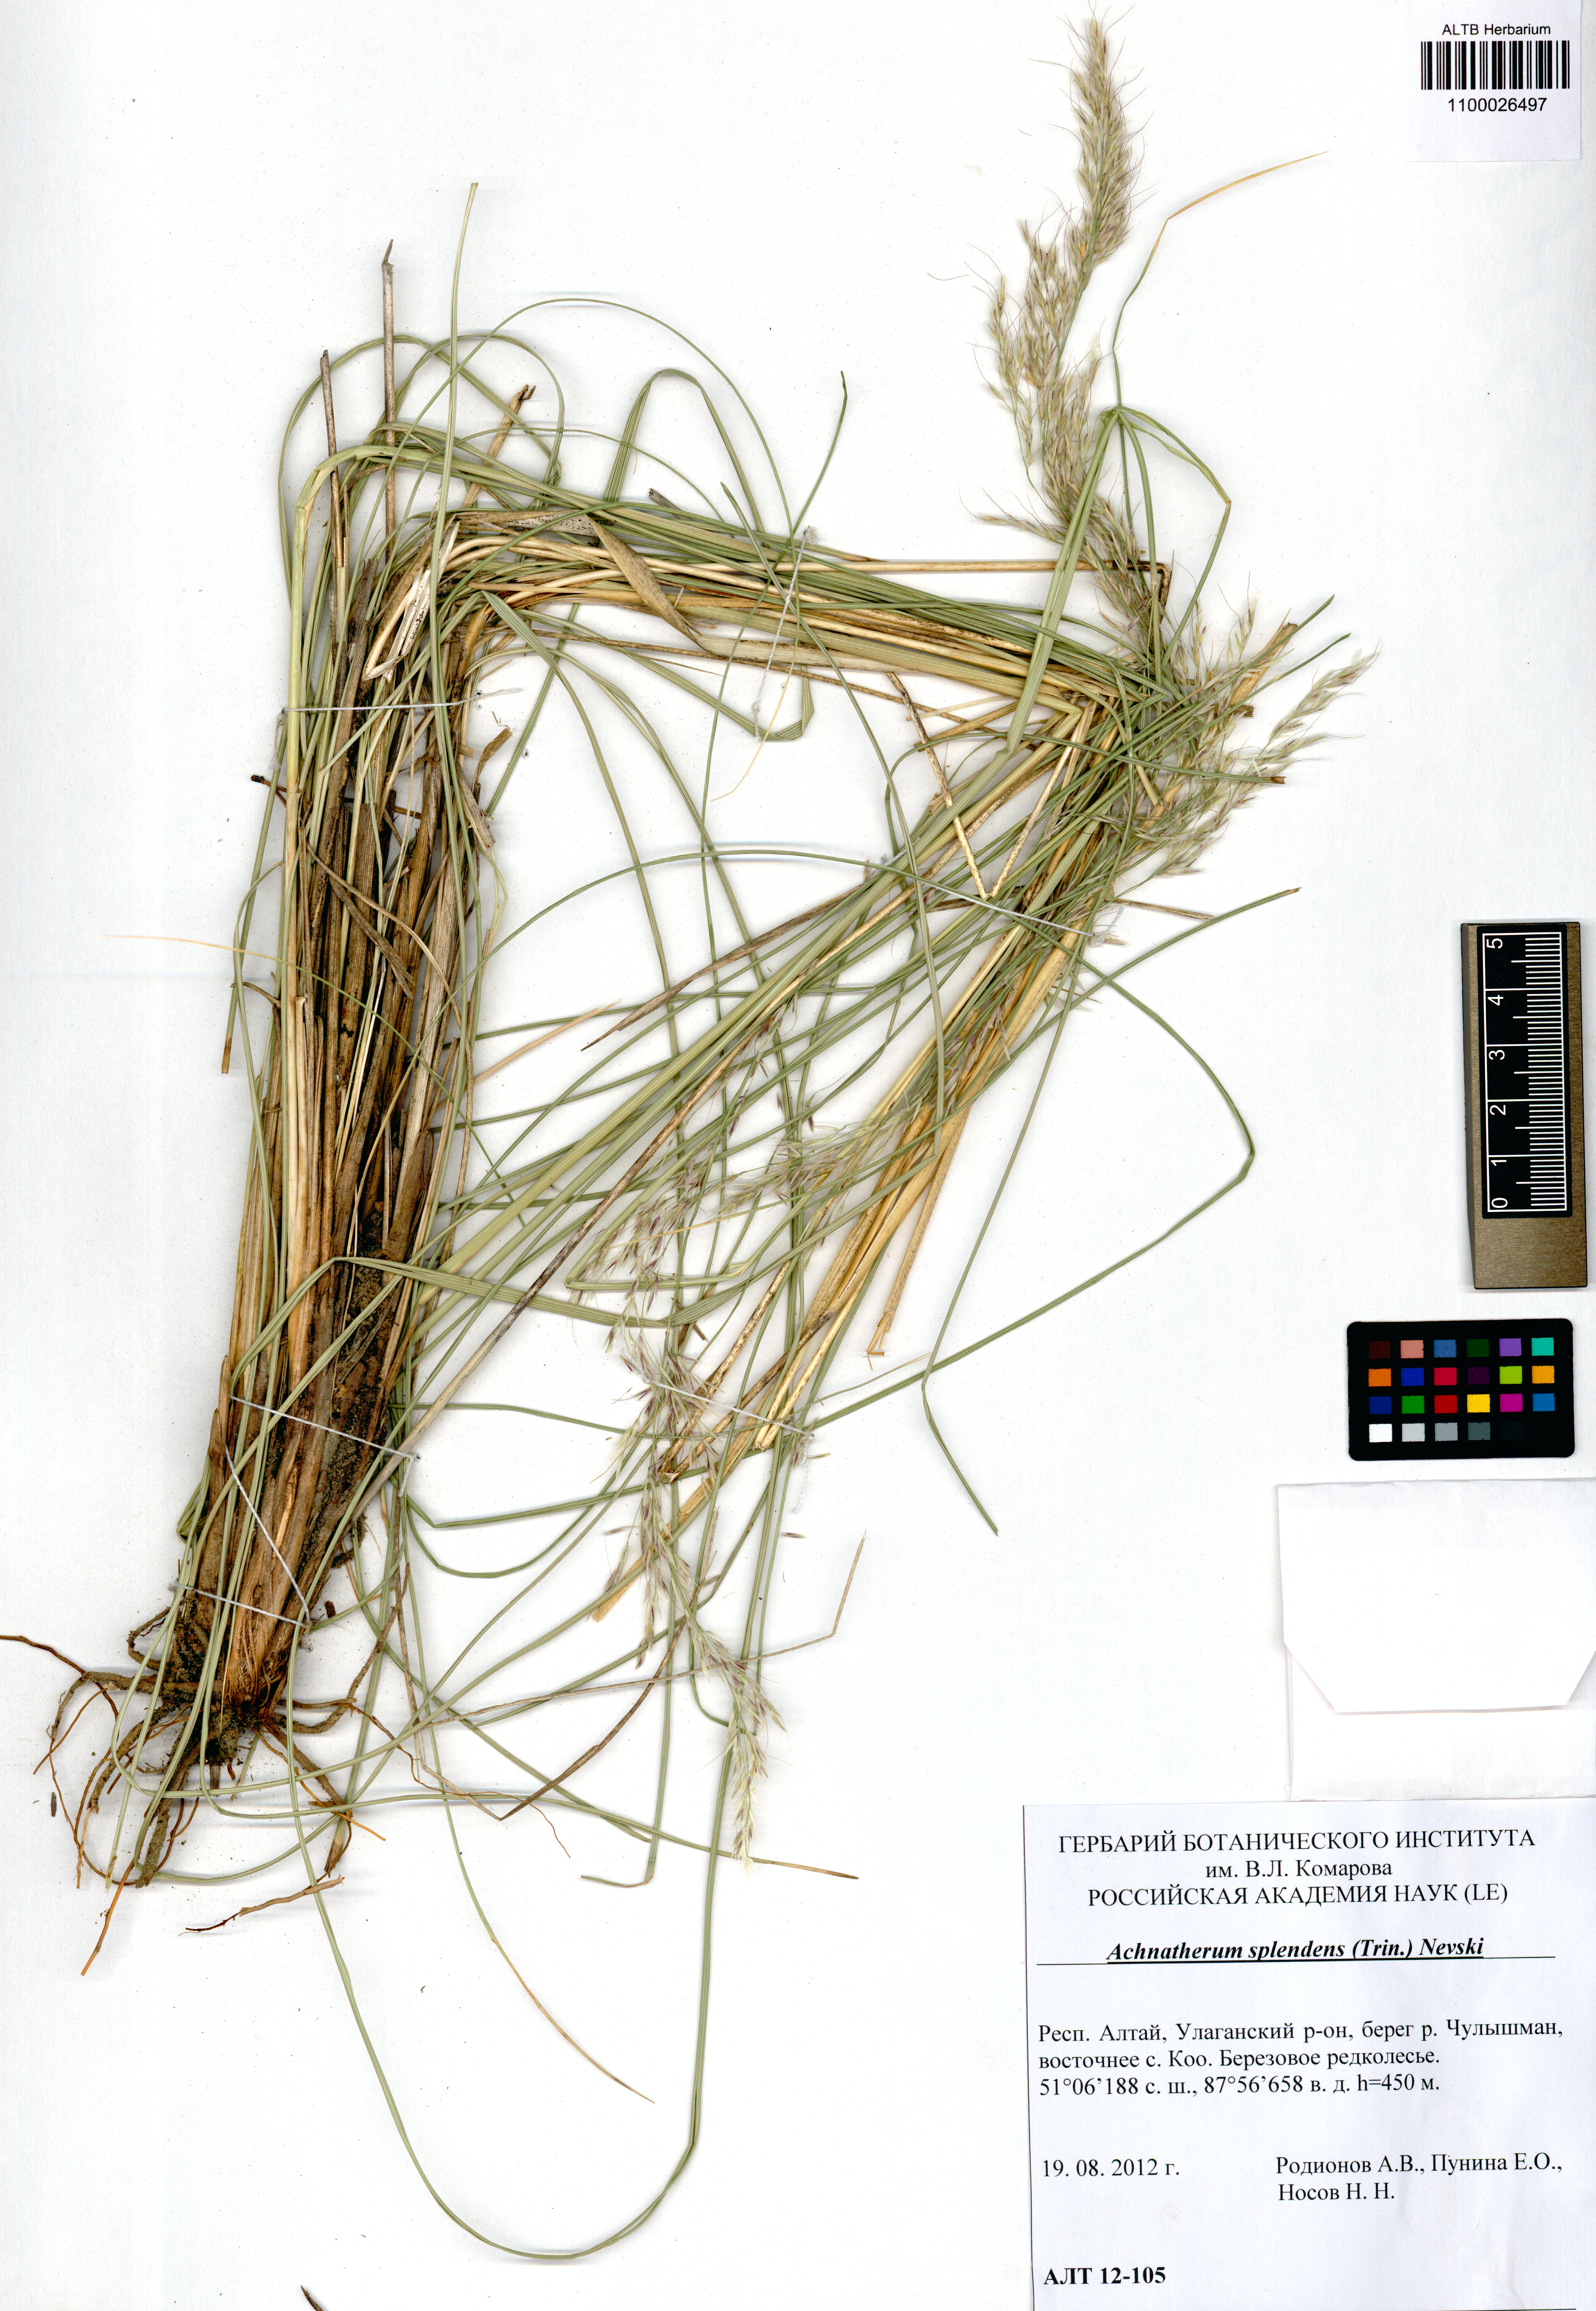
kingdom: Plantae
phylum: Tracheophyta
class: Liliopsida
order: Poales
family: Poaceae
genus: Neotrinia
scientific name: Neotrinia splendens
